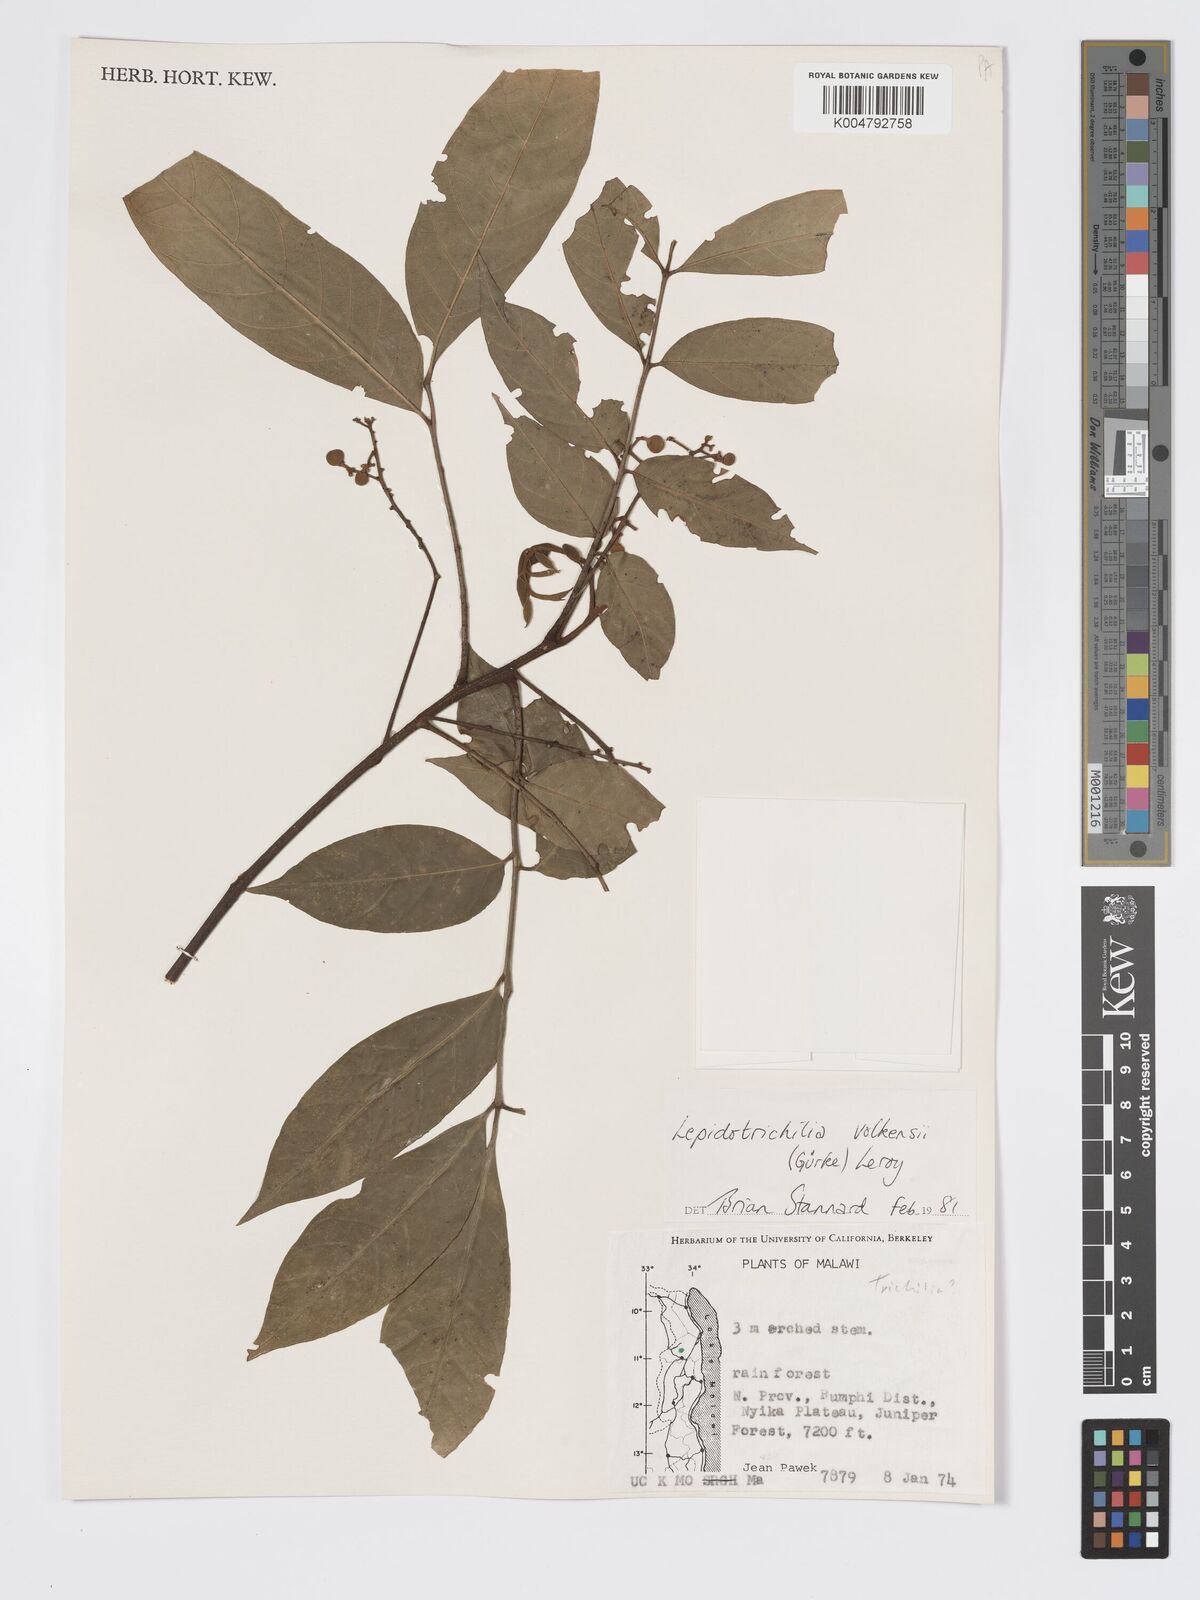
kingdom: Plantae
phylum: Tracheophyta
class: Magnoliopsida
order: Sapindales
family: Meliaceae
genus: Lepidotrichilia
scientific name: Lepidotrichilia volkensii
